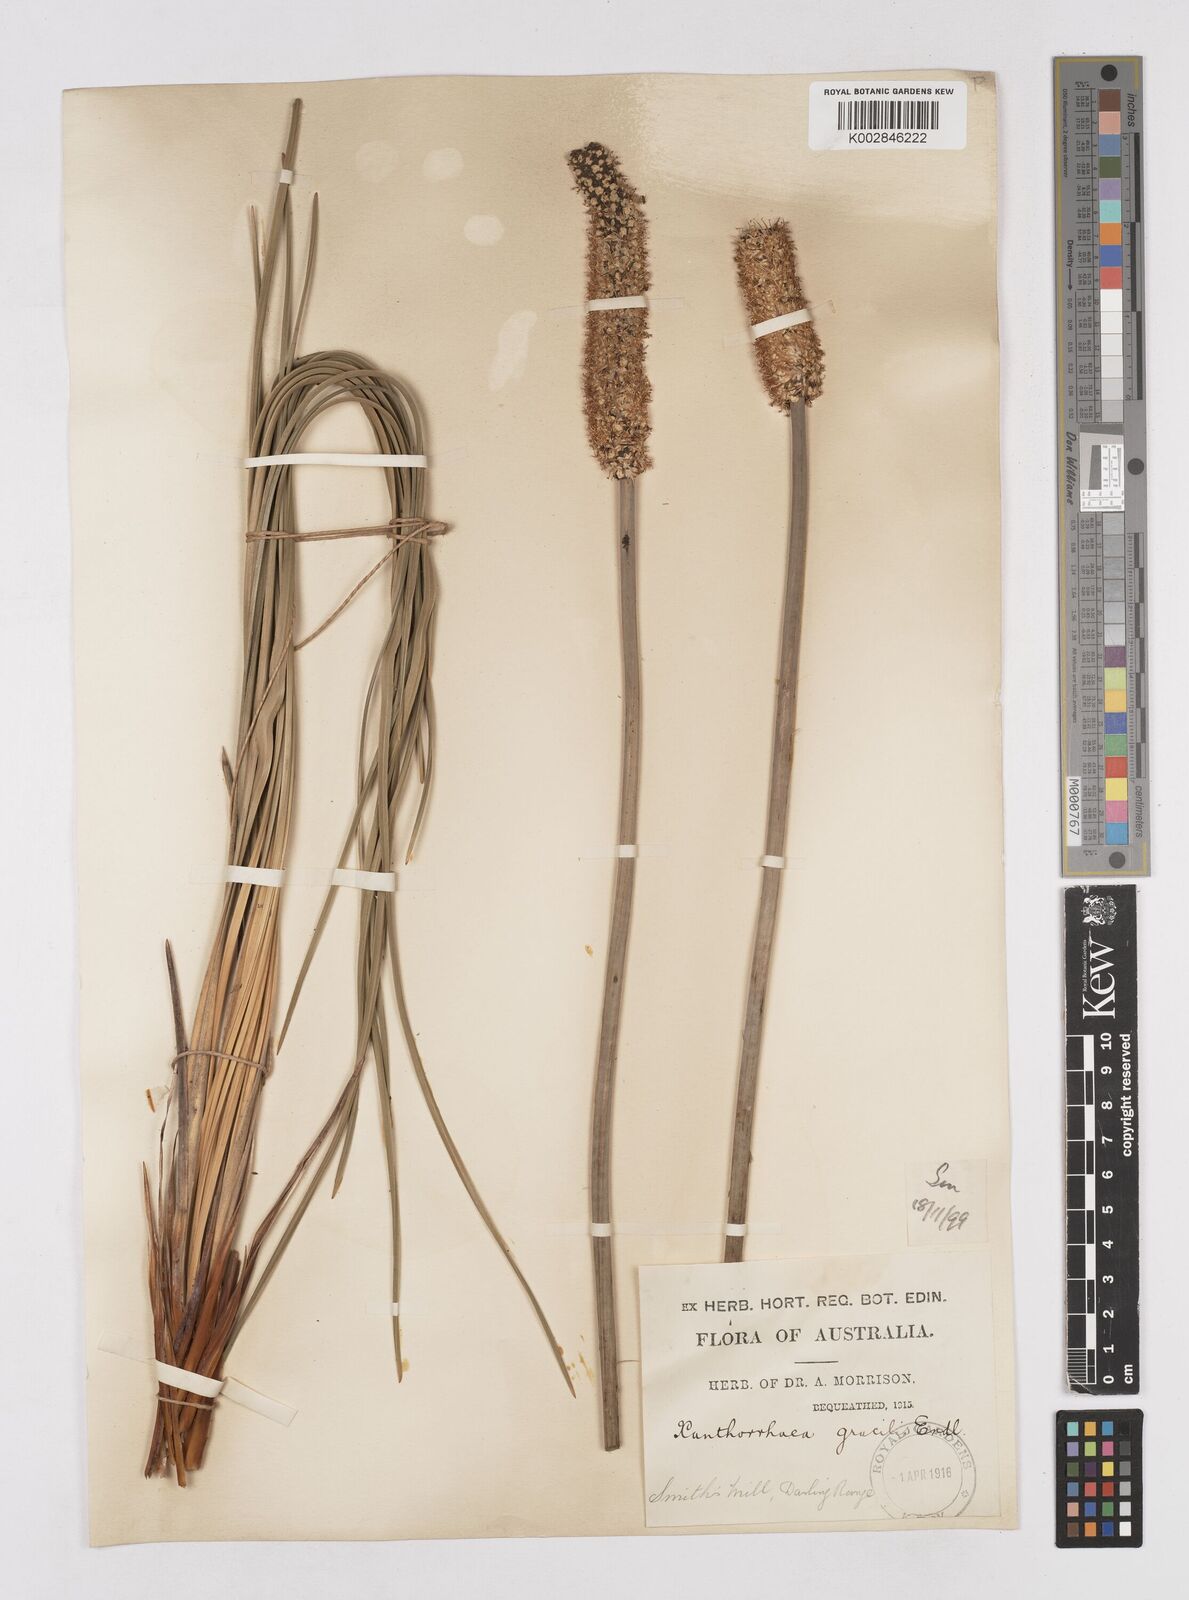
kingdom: Plantae
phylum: Tracheophyta
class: Liliopsida
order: Asparagales
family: Asphodelaceae
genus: Xanthorrhoea
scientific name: Xanthorrhoea gracilis
